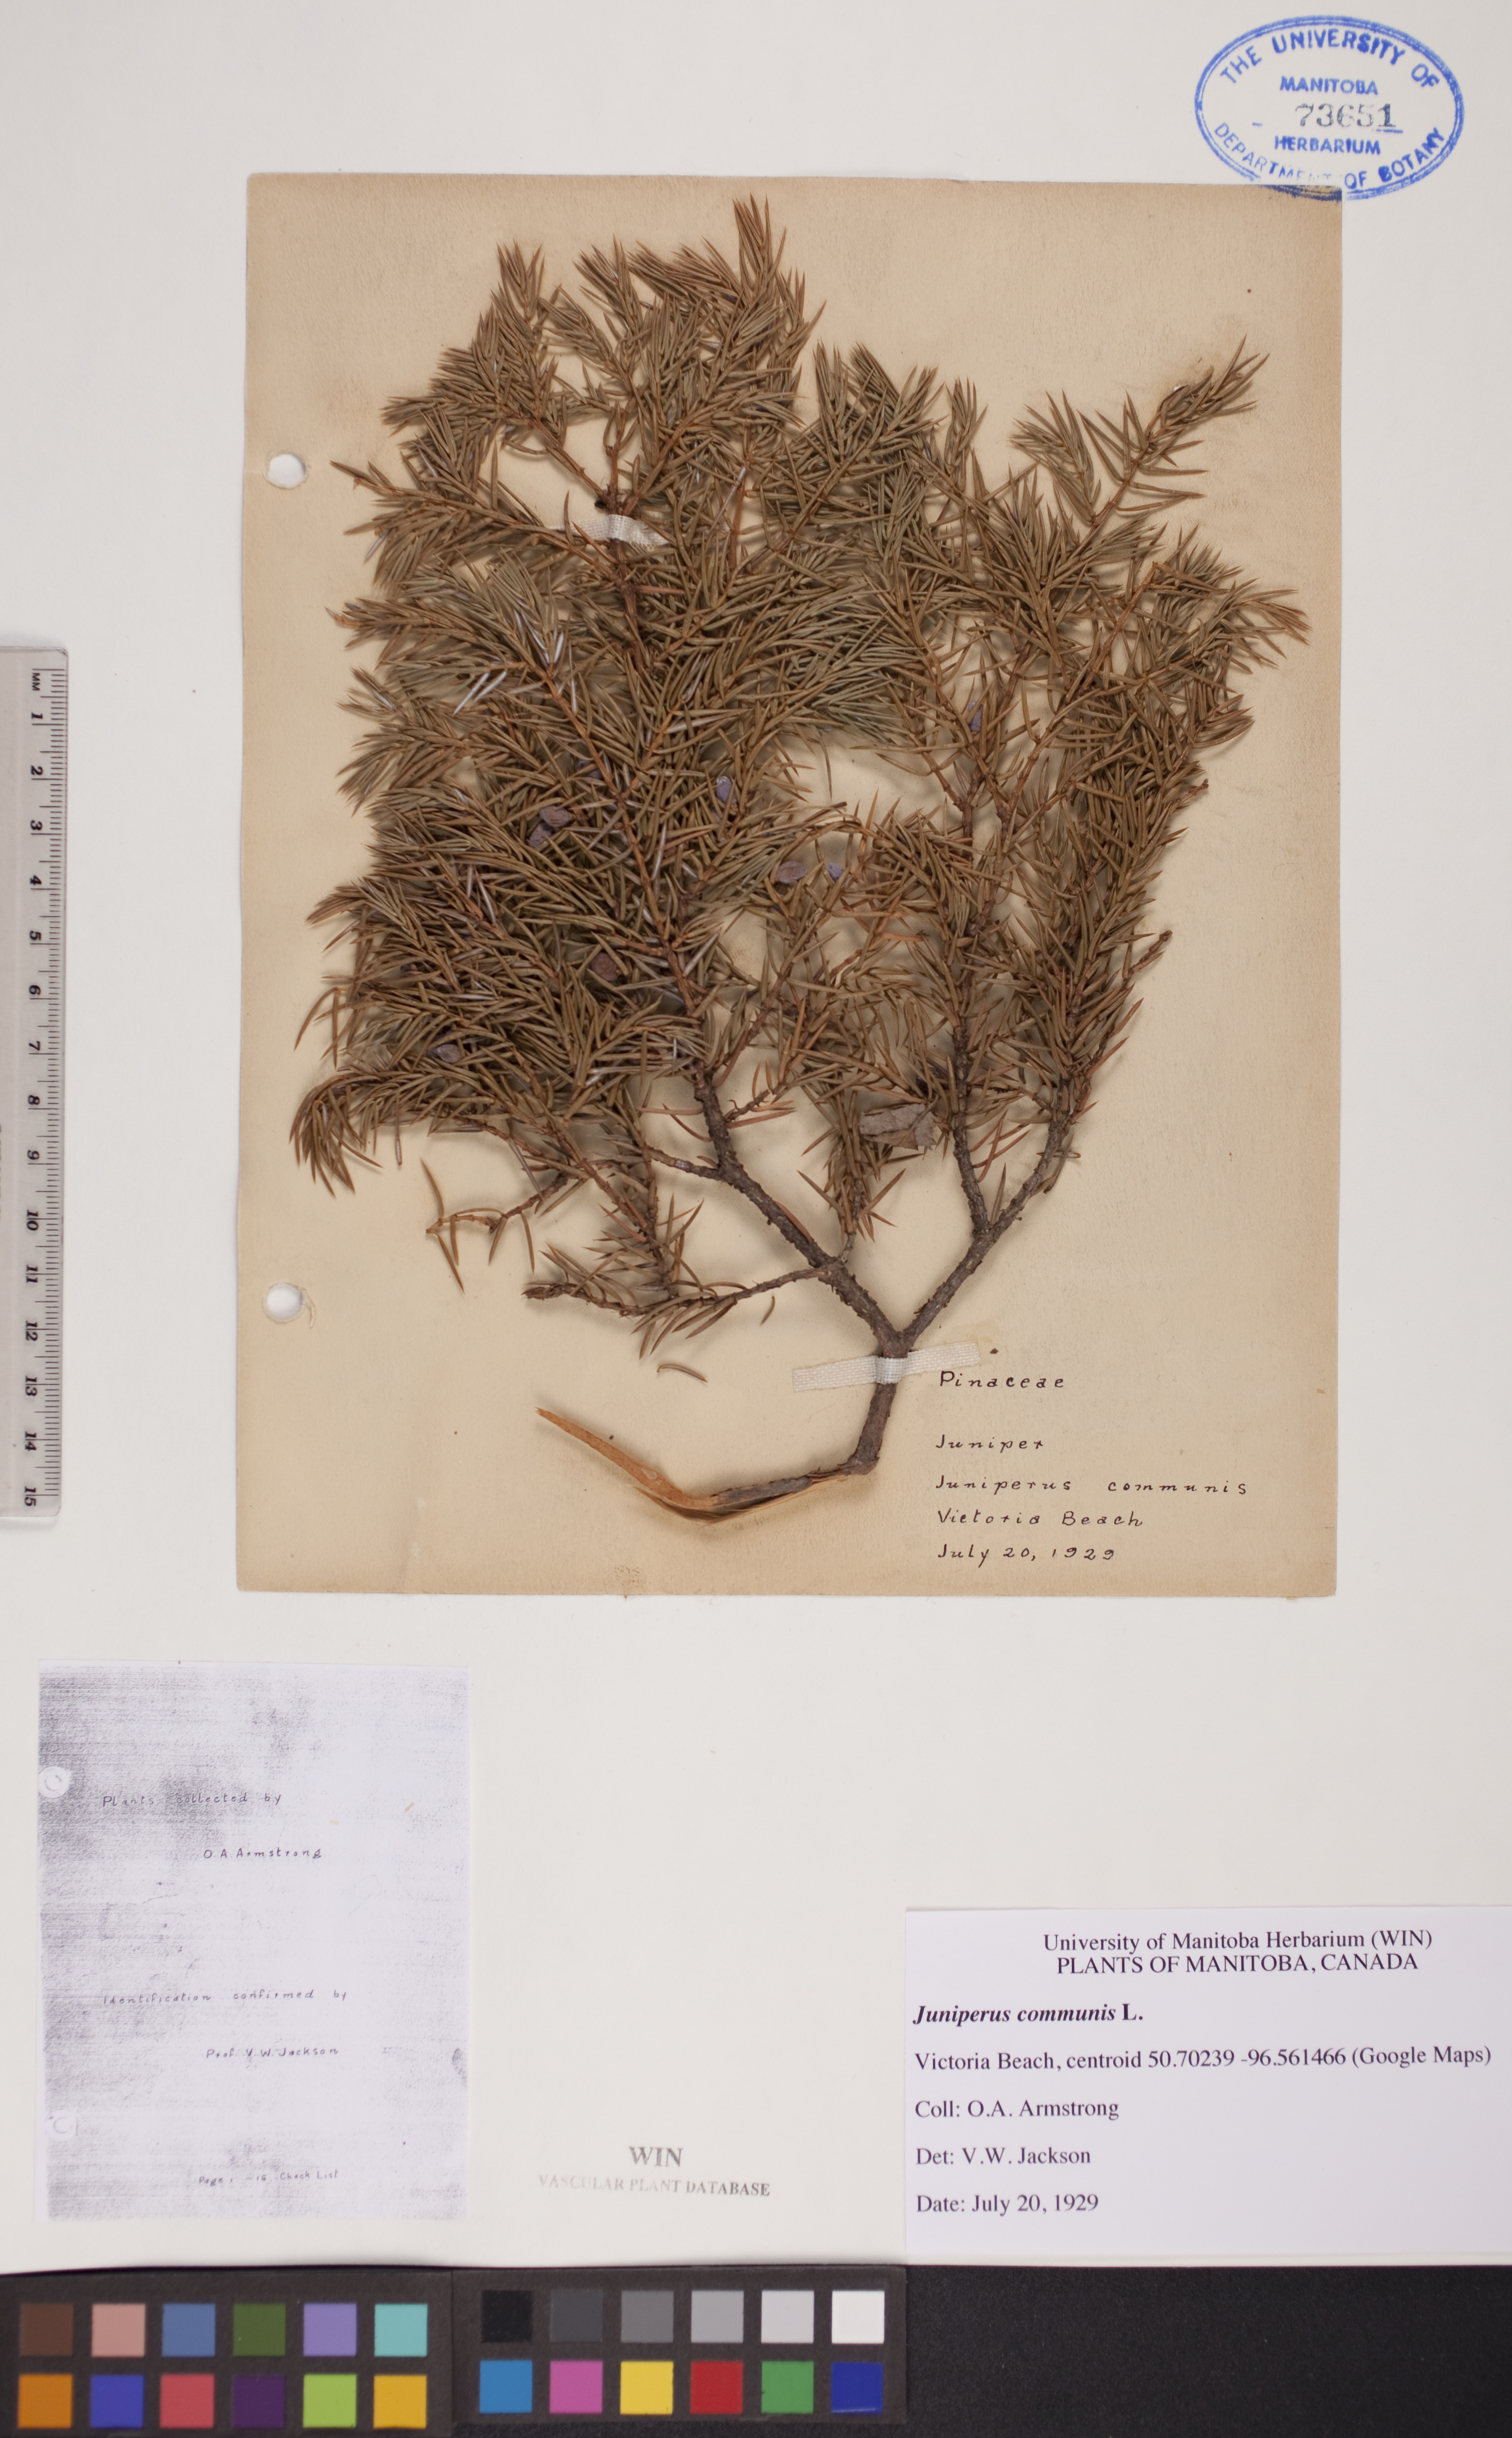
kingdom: Plantae
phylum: Tracheophyta
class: Pinopsida
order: Pinales
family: Cupressaceae
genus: Juniperus
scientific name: Juniperus communis
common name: Common juniper
